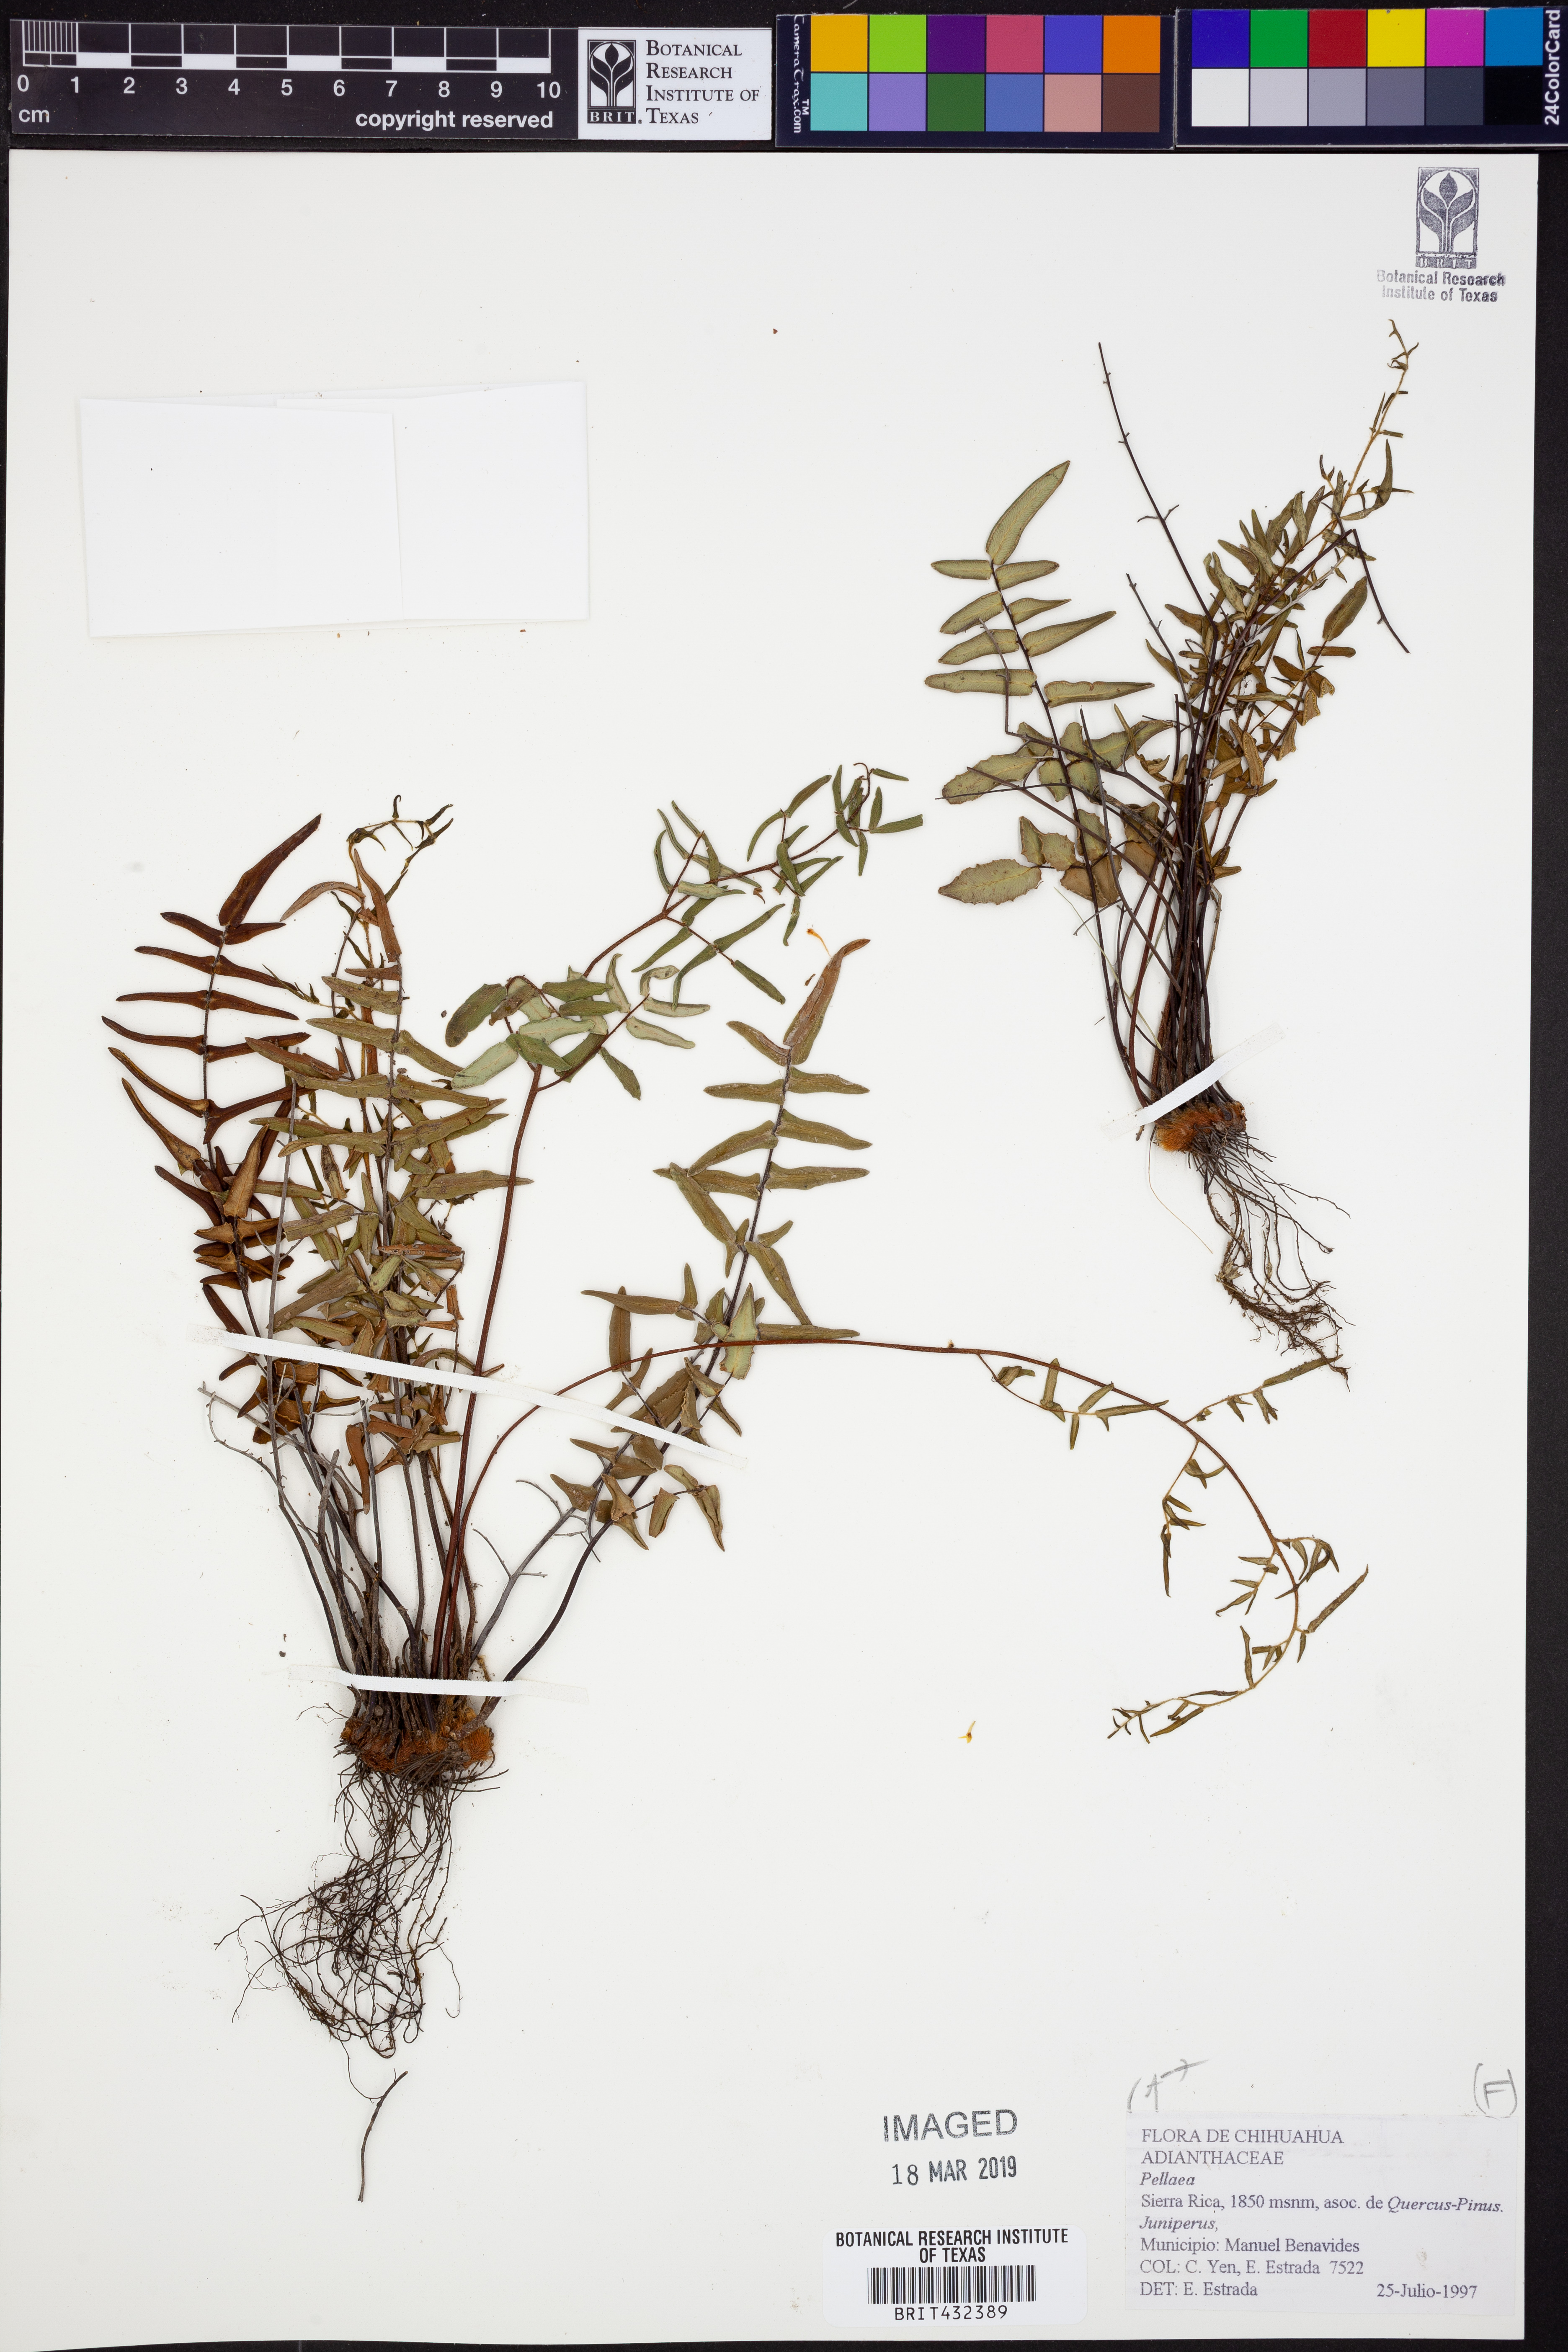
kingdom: Plantae
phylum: Tracheophyta
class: Polypodiopsida
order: Polypodiales
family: Pteridaceae
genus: Pellaea
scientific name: Pellaea
